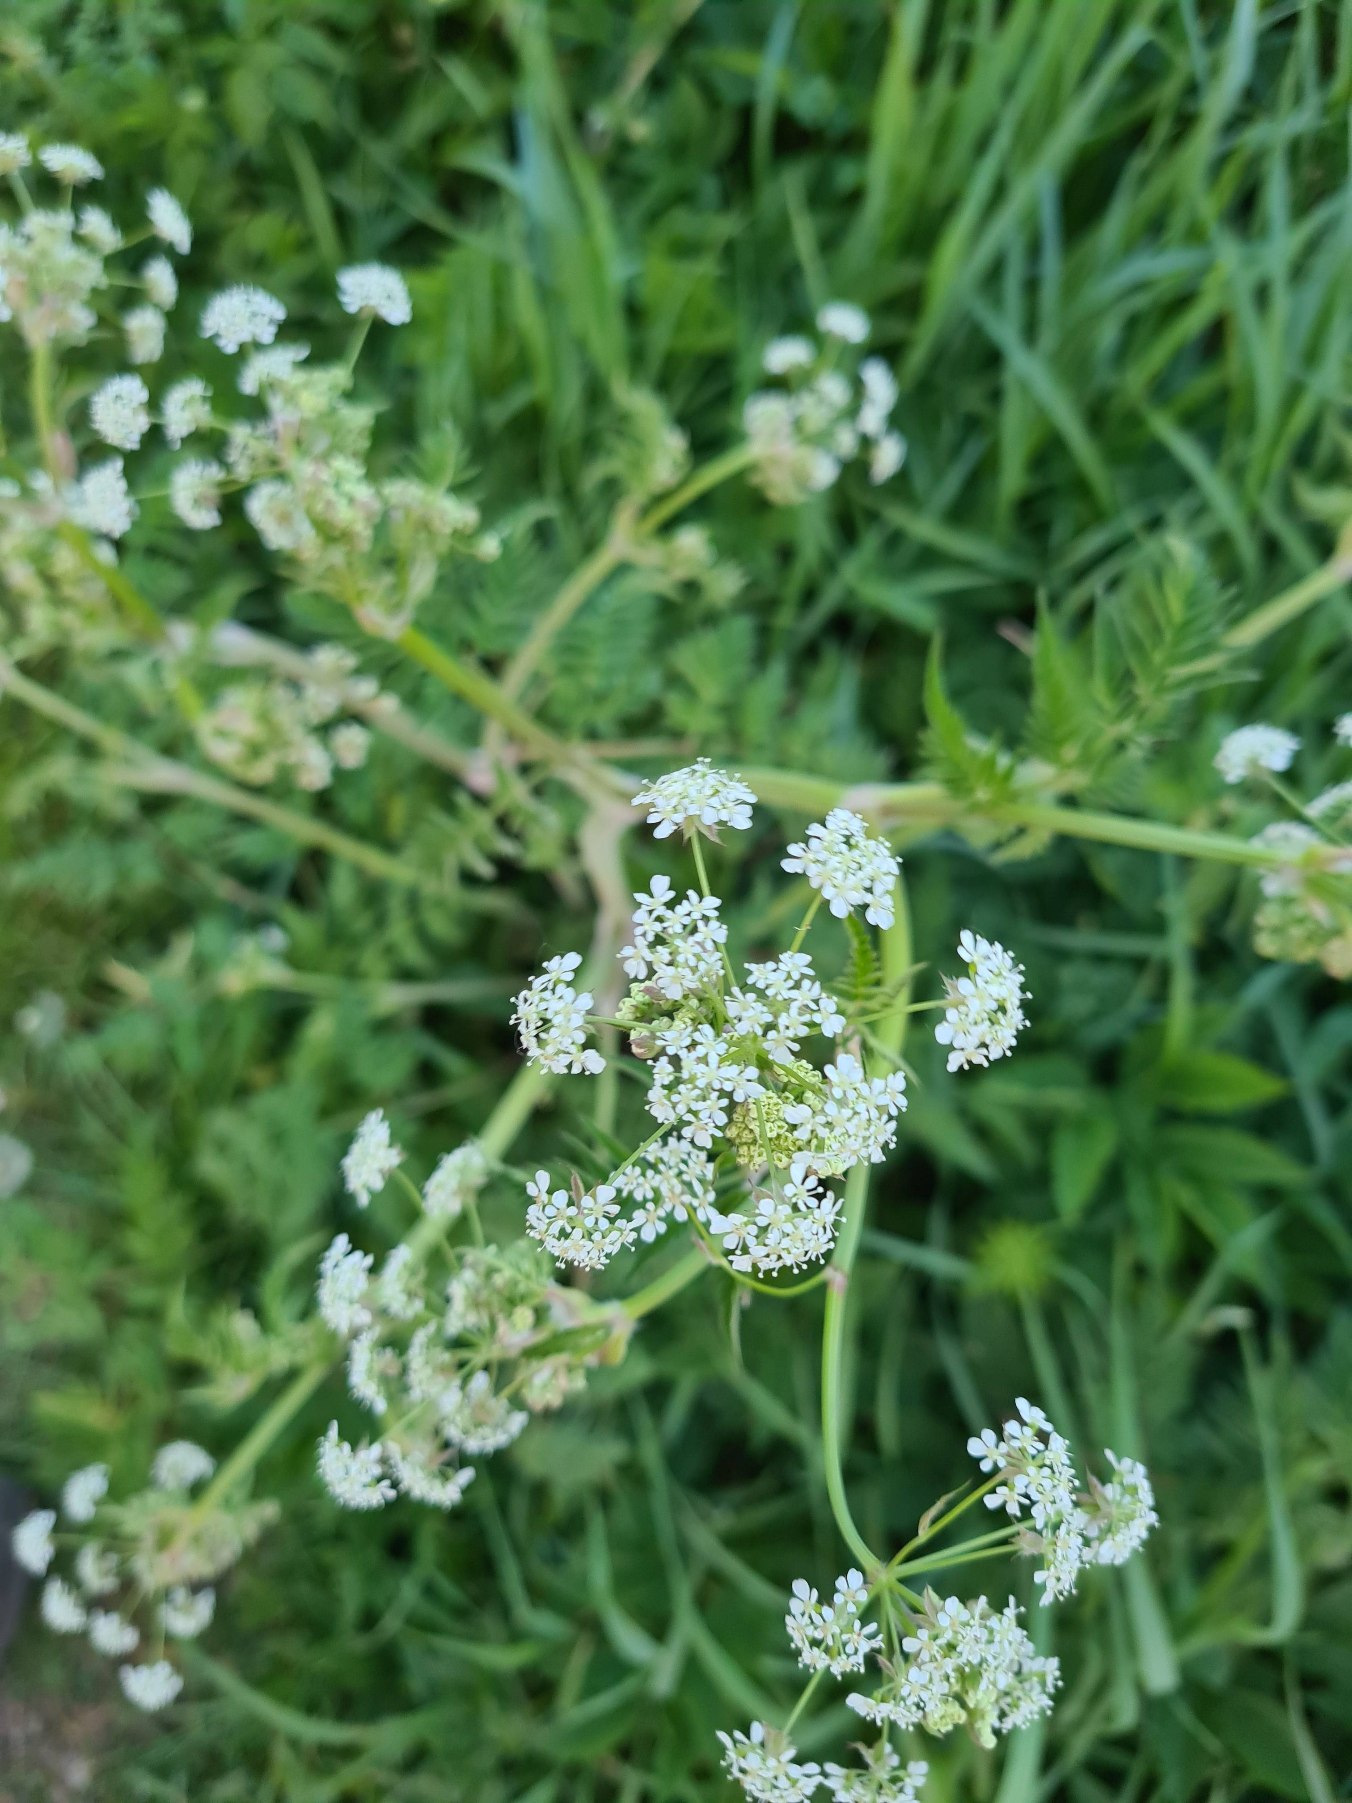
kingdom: Plantae
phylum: Tracheophyta
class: Magnoliopsida
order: Apiales
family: Apiaceae
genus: Anthriscus
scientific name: Anthriscus sylvestris
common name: Vild kørvel
